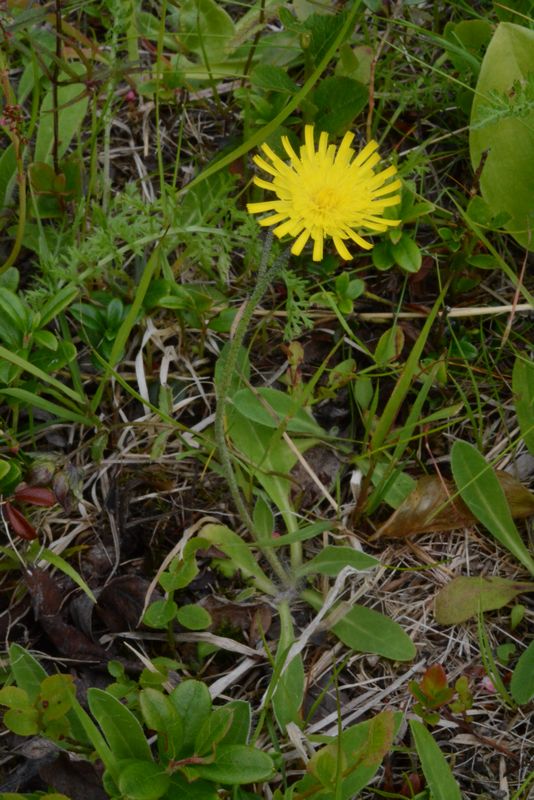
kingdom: Plantae
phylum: Tracheophyta
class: Magnoliopsida
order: Asterales
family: Asteraceae
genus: Pilosella
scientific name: Pilosella officinarum
